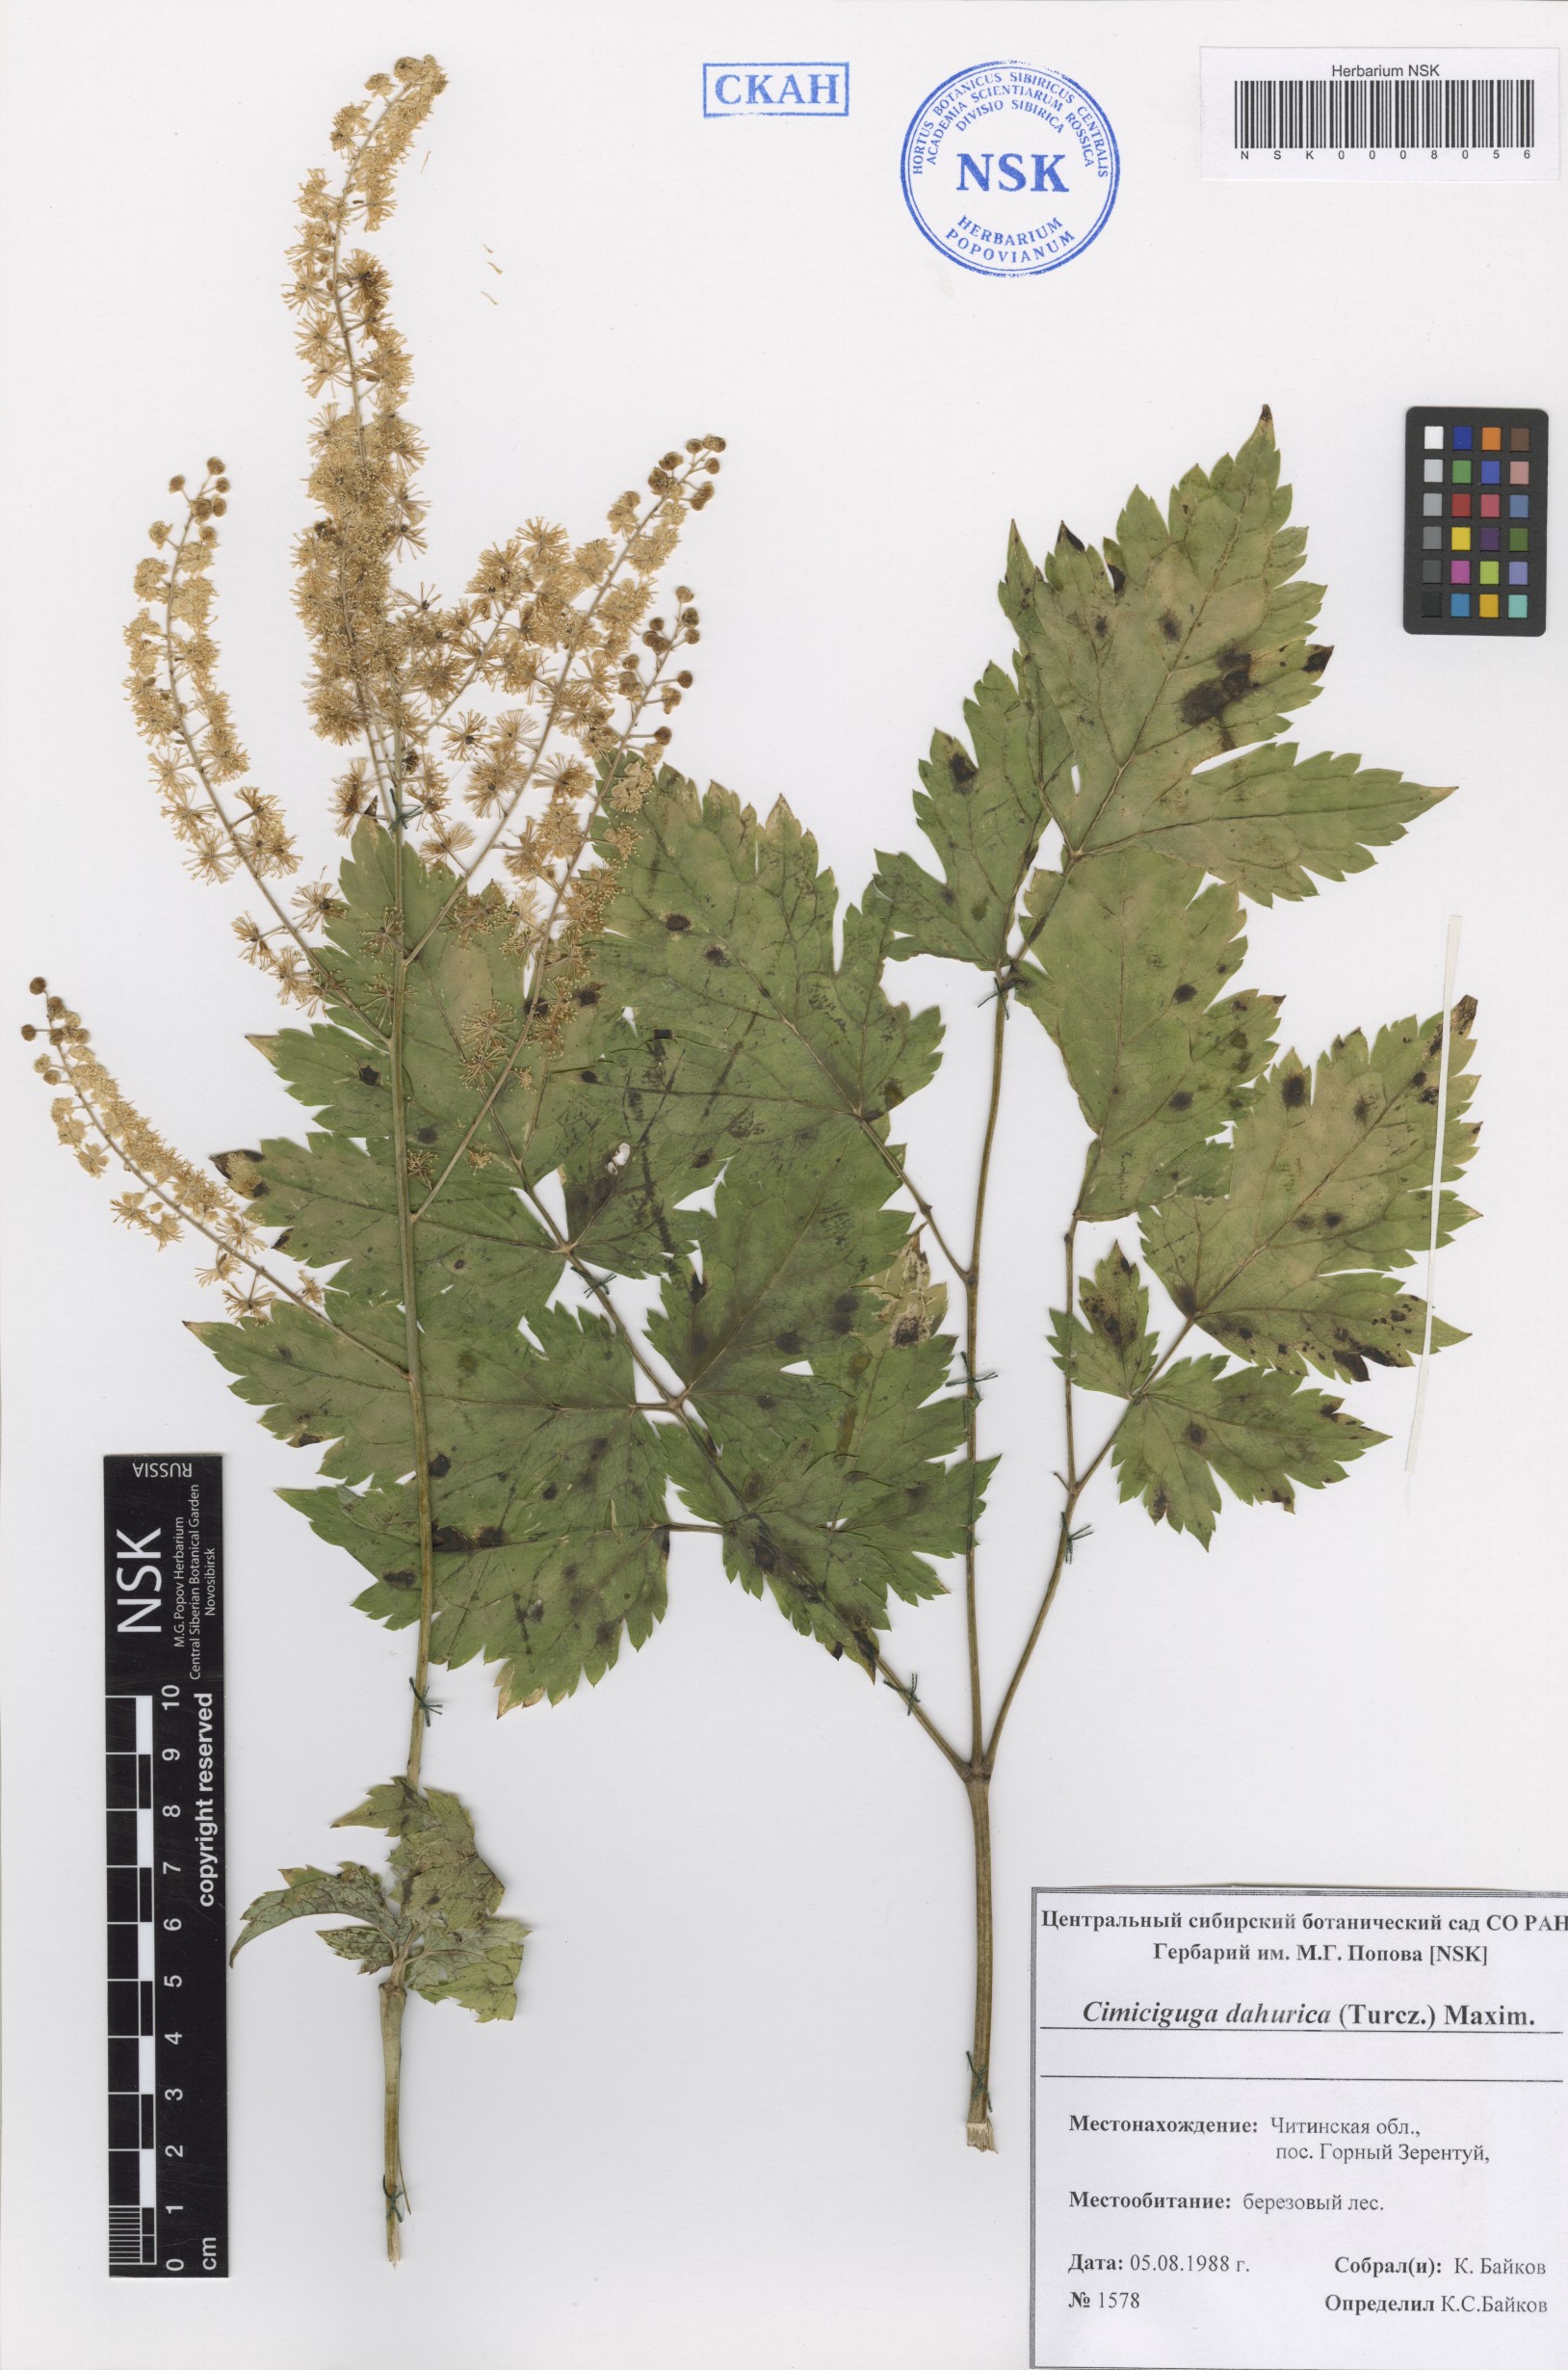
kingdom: Plantae
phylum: Tracheophyta
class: Magnoliopsida
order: Ranunculales
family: Ranunculaceae
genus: Actaea
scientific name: Actaea dahurica
